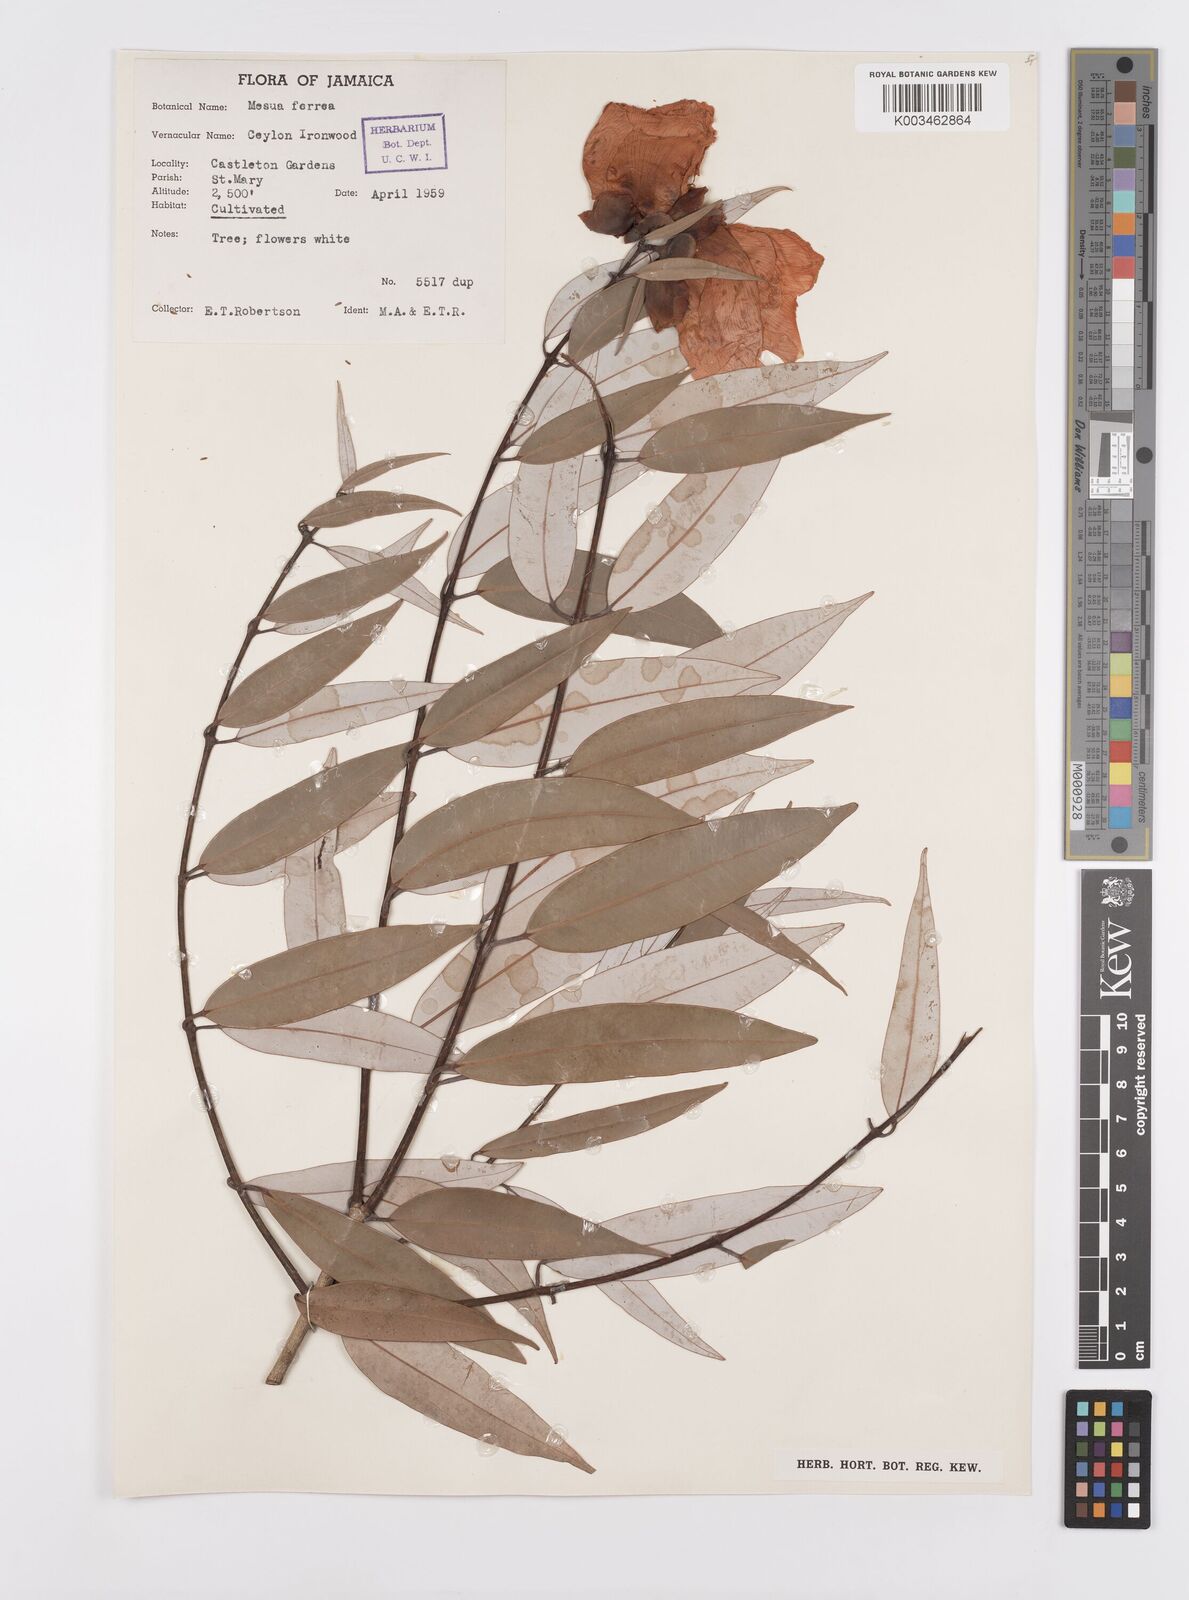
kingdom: Plantae
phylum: Tracheophyta
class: Magnoliopsida
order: Malpighiales
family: Calophyllaceae
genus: Mesua
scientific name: Mesua ferrea
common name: Mesua
